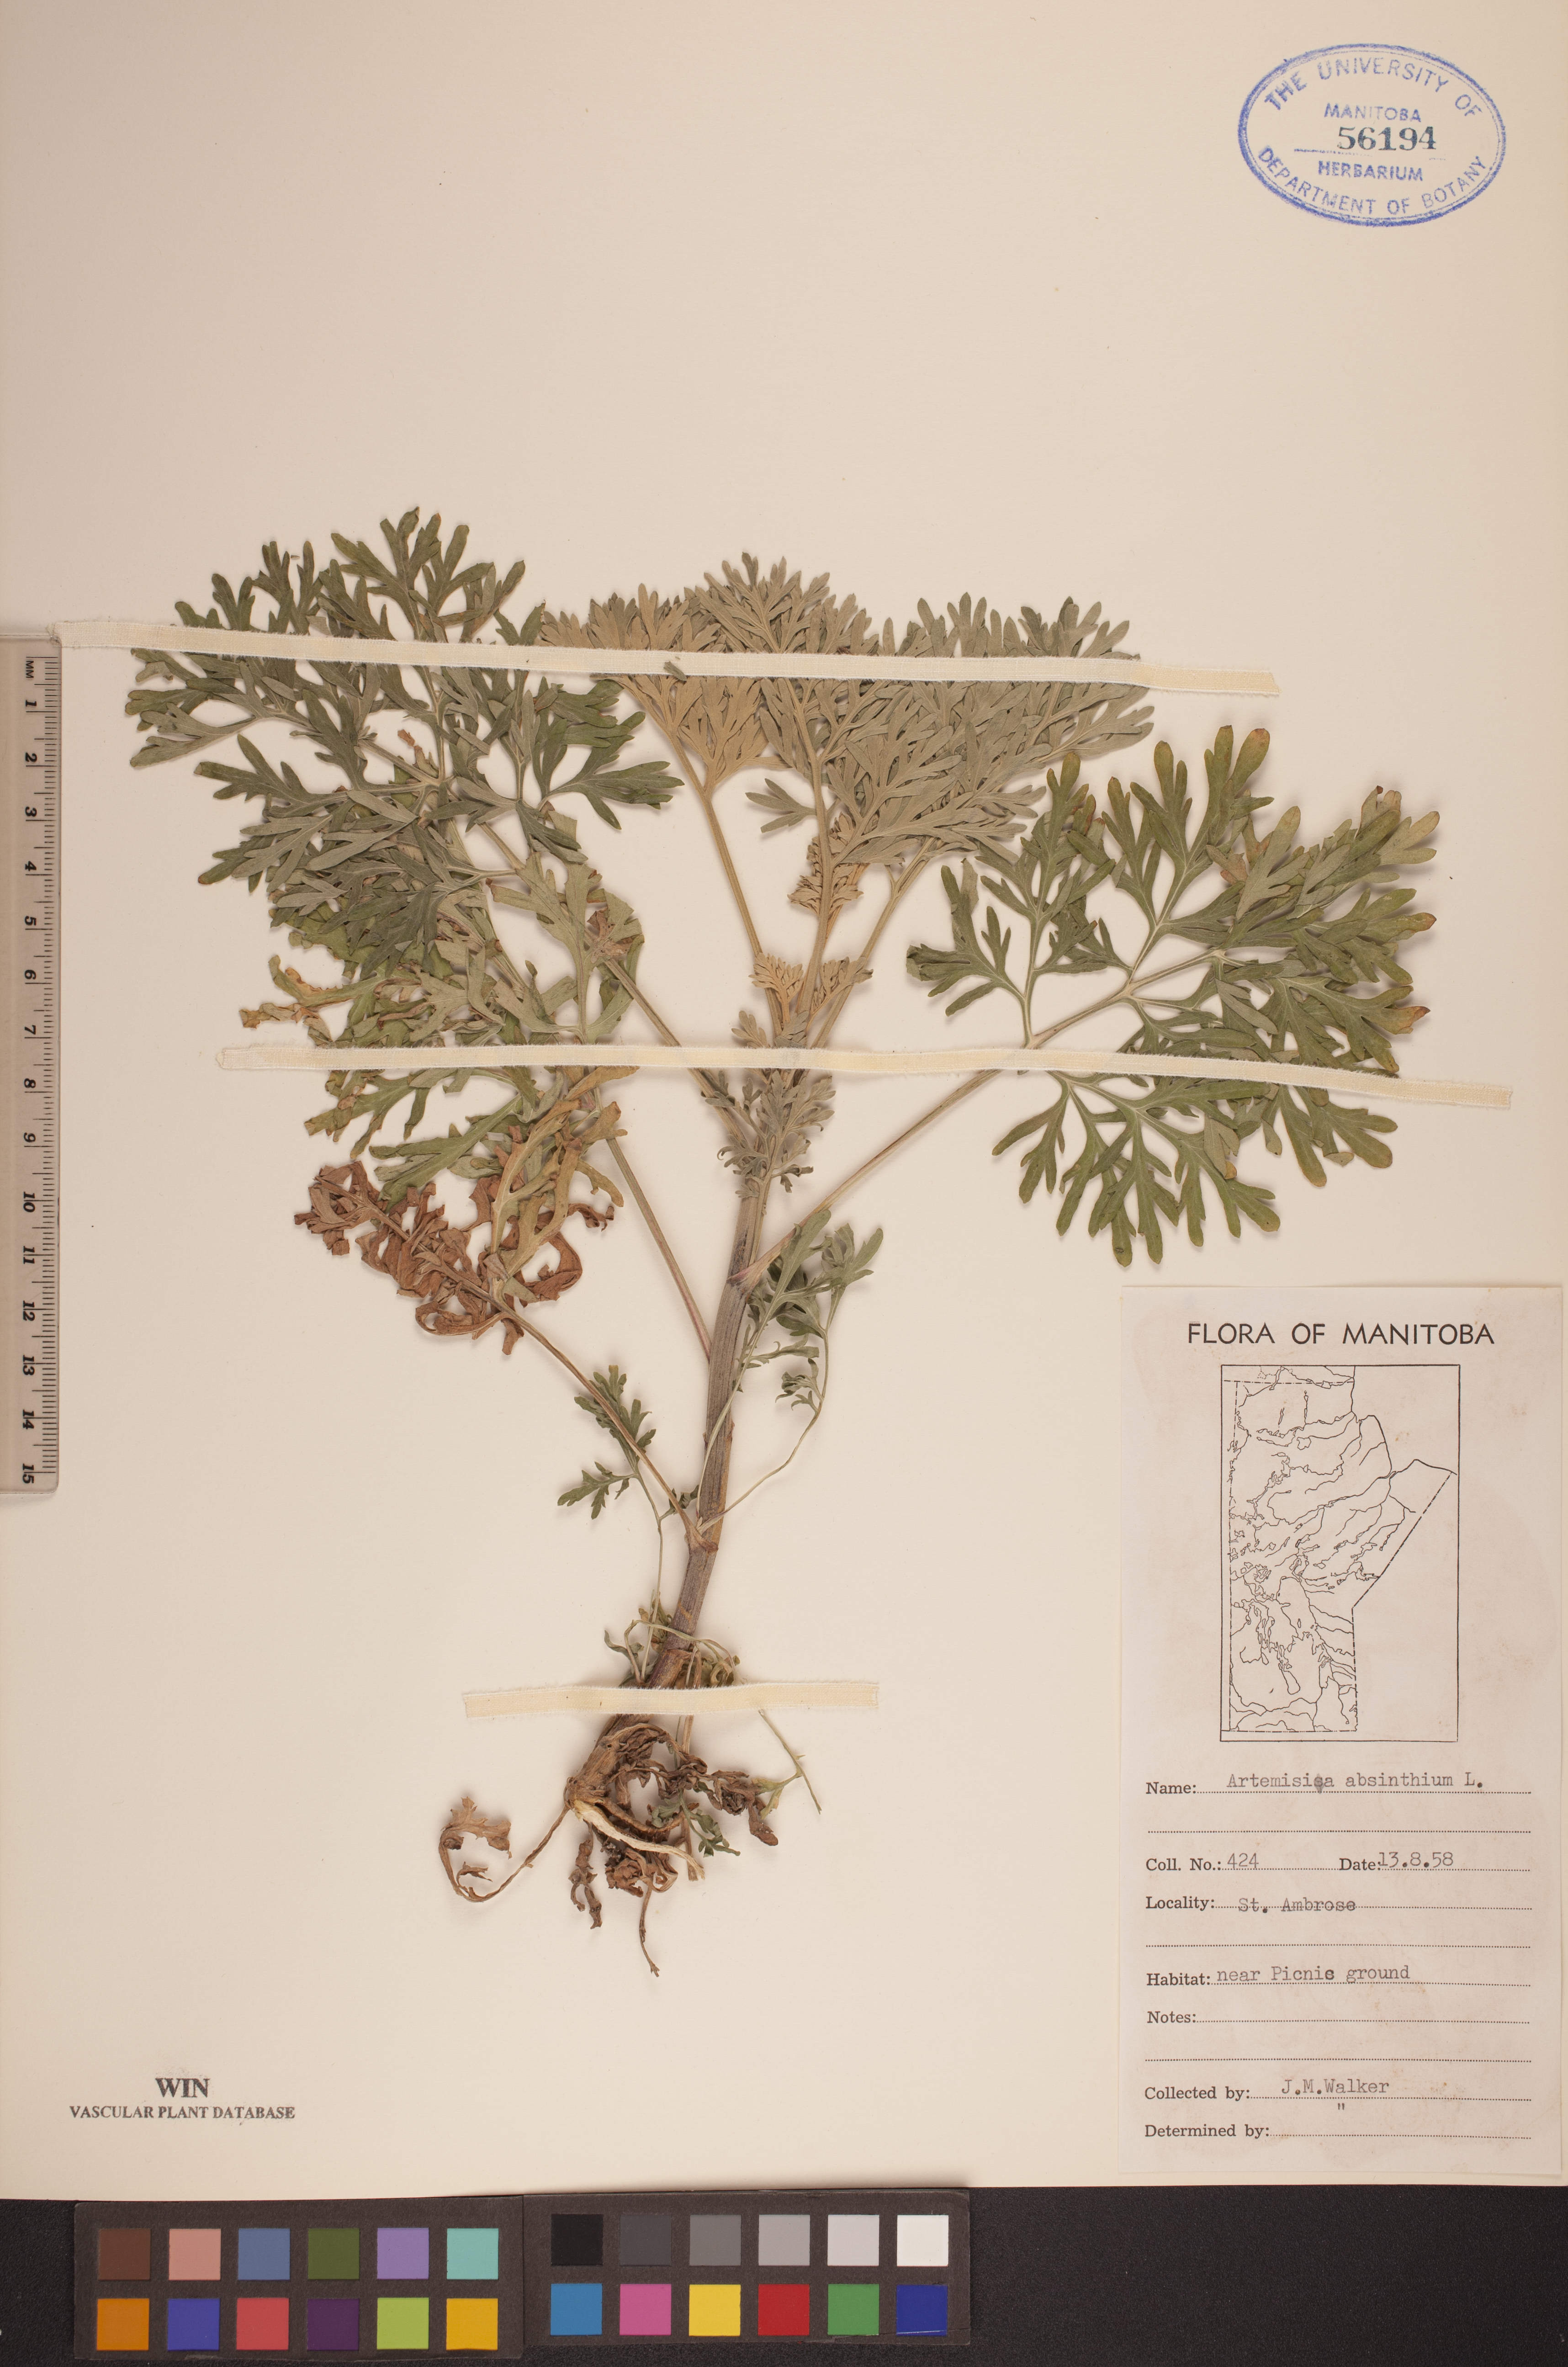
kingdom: Plantae
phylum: Tracheophyta
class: Magnoliopsida
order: Asterales
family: Asteraceae
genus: Artemisia
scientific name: Artemisia absinthium
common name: Wormwood
